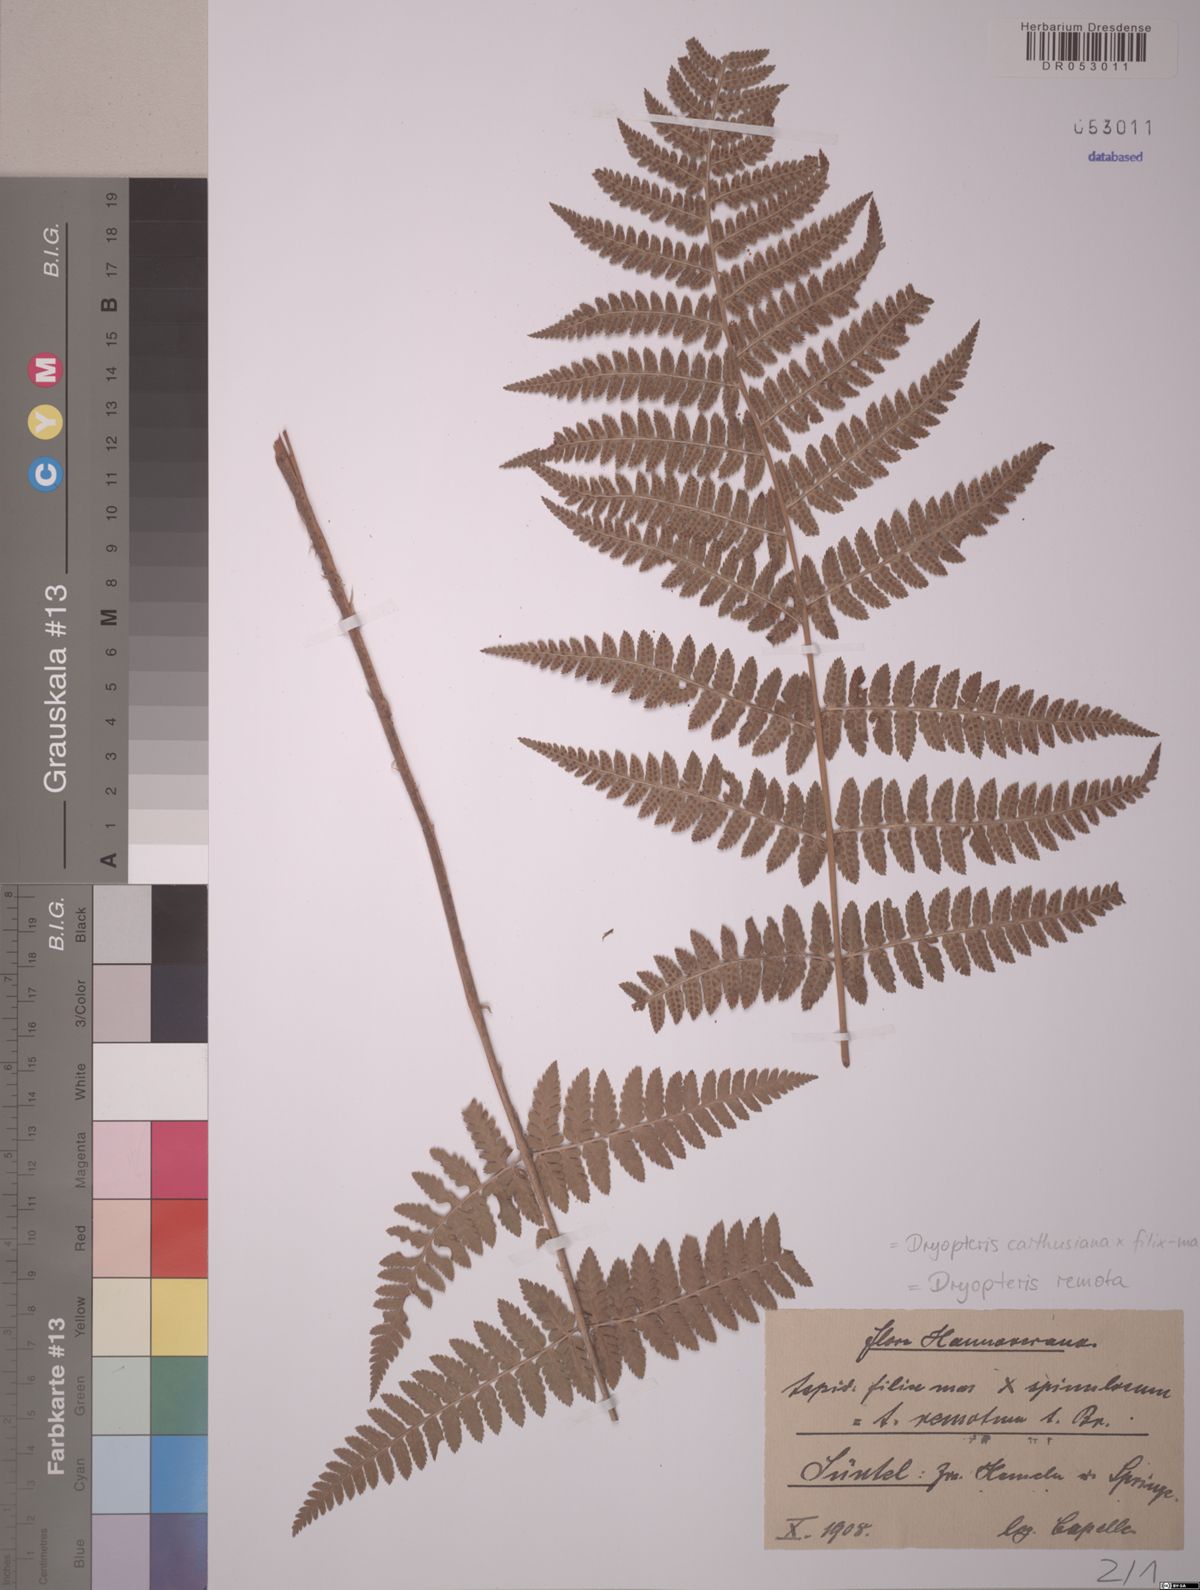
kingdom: Plantae
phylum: Tracheophyta
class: Polypodiopsida
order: Polypodiales
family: Dryopteridaceae
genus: Dryopteris
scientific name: Dryopteris remota
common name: Scaly buckler-fern
